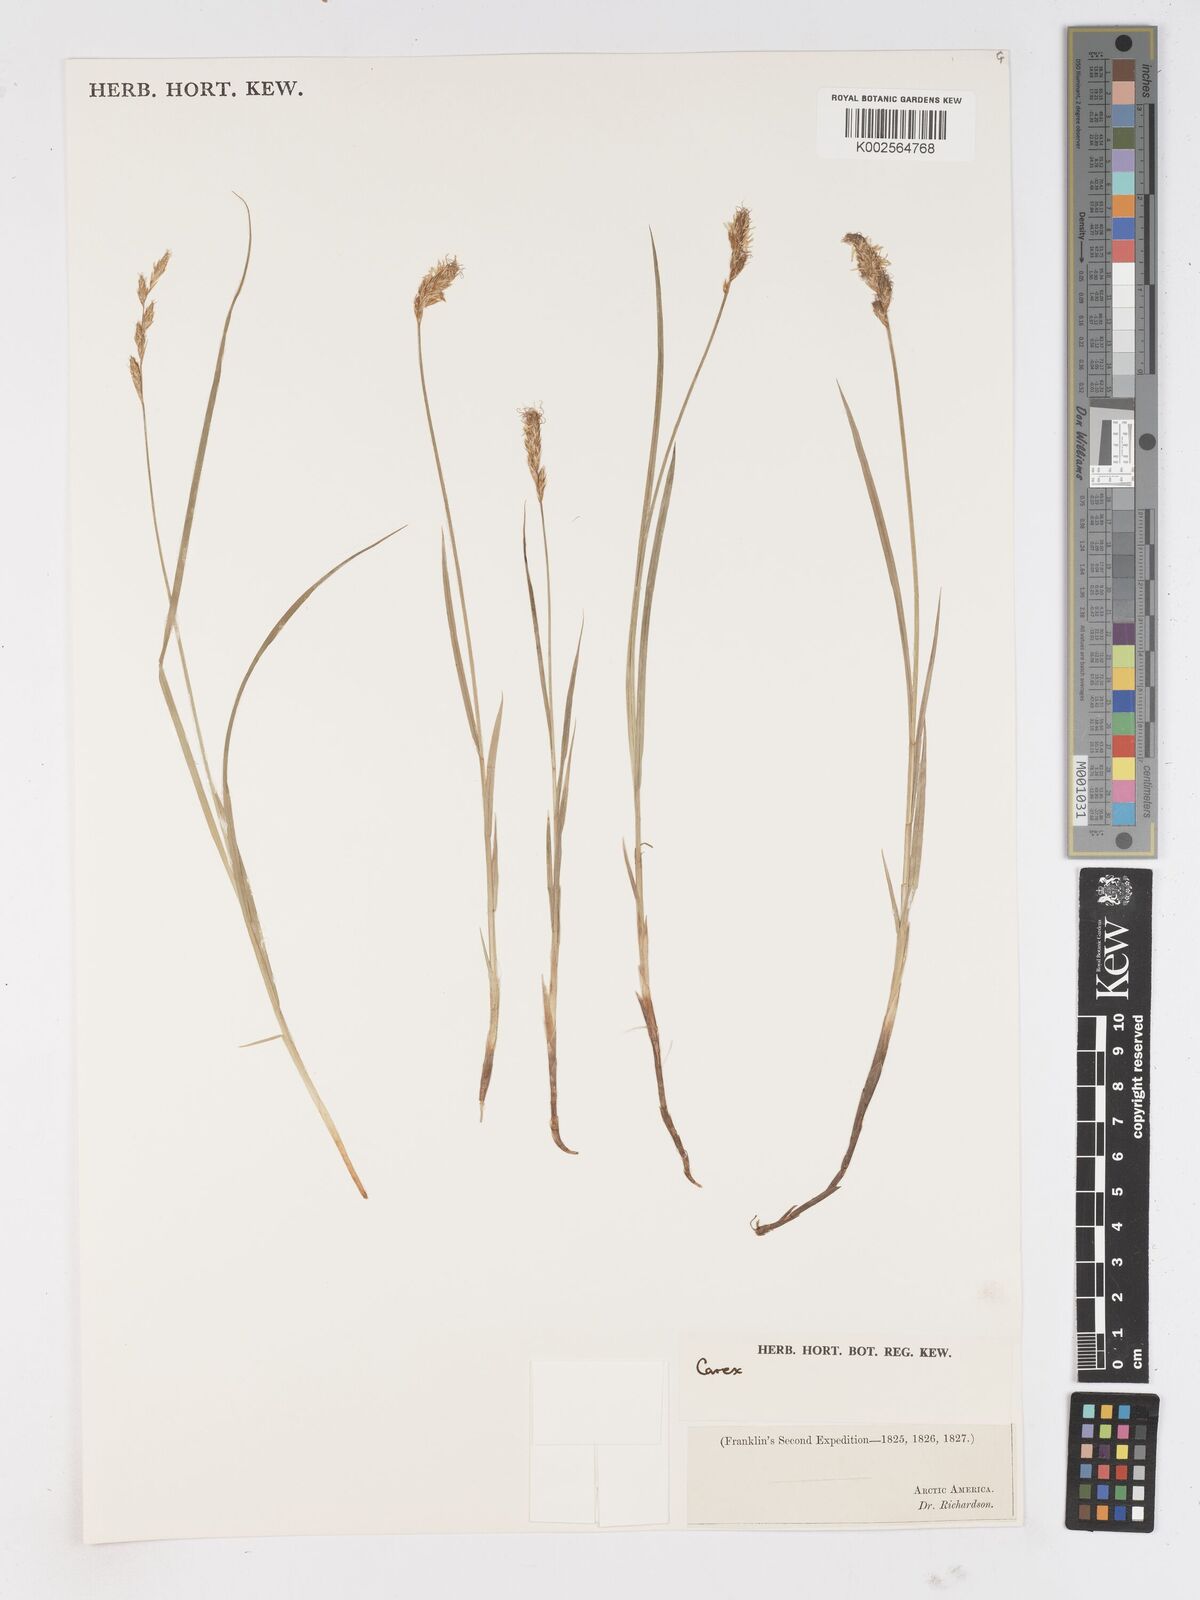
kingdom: Plantae
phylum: Tracheophyta
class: Liliopsida
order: Poales
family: Cyperaceae
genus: Carex
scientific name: Carex
